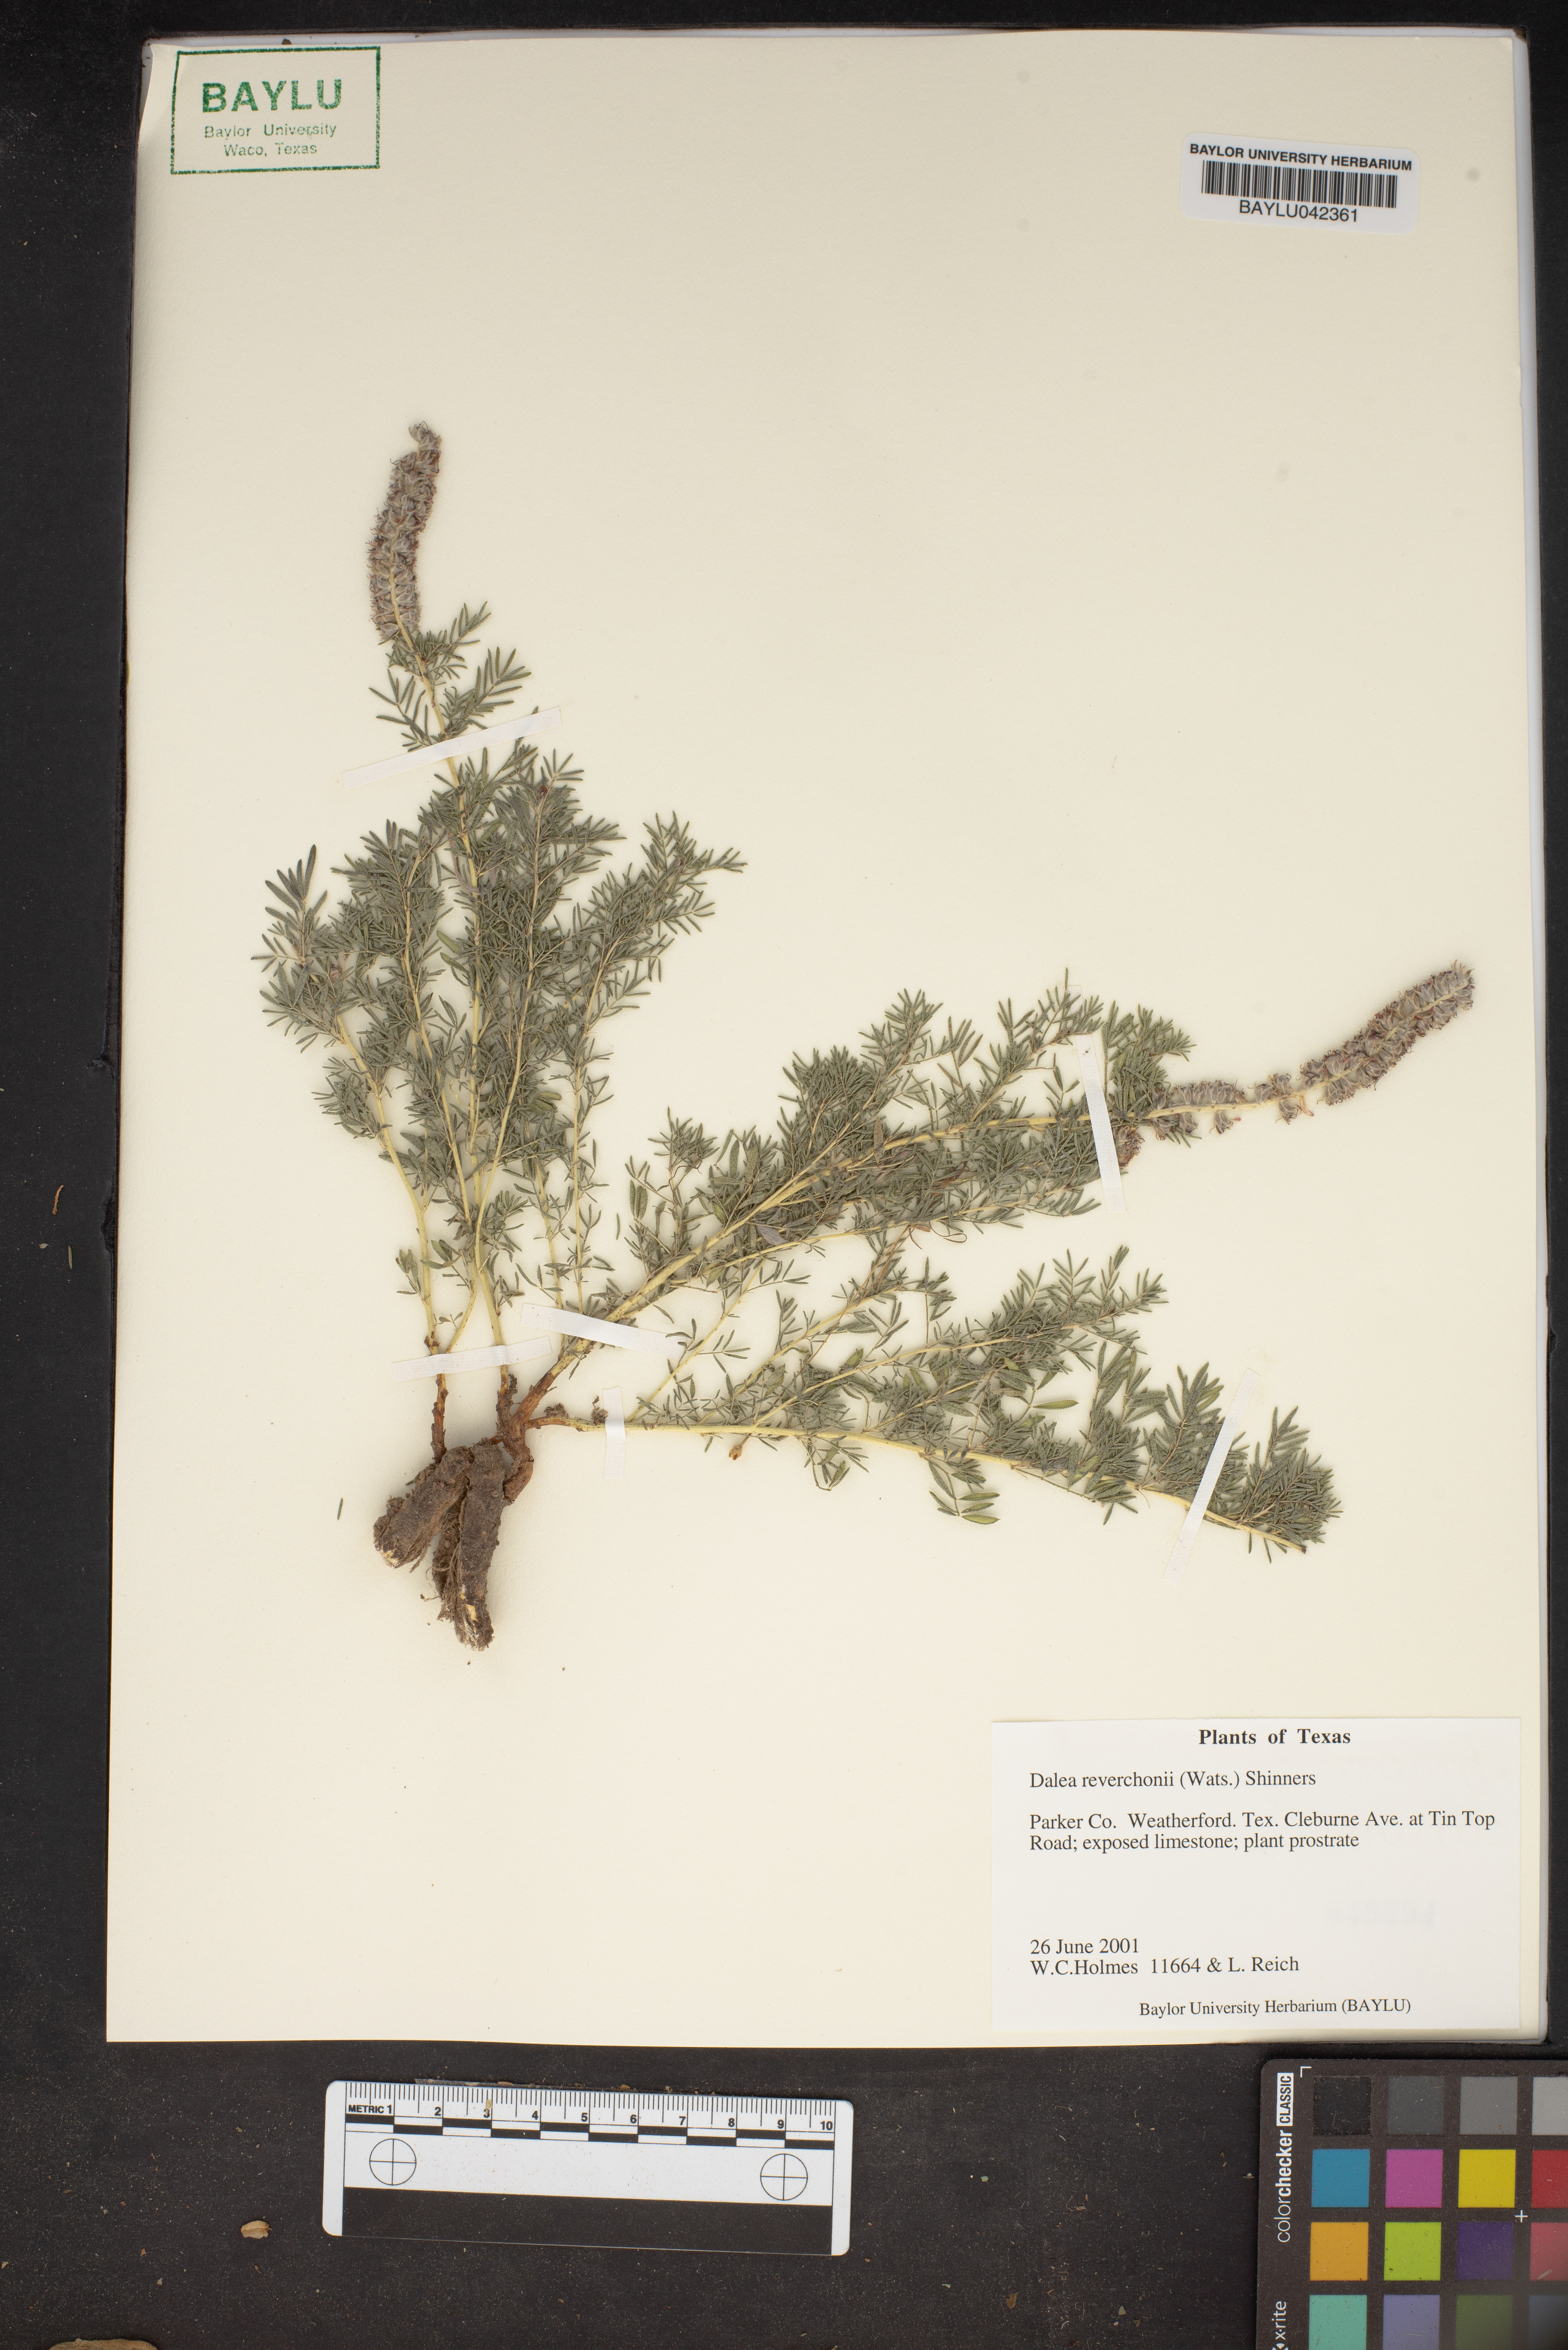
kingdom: Plantae
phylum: Tracheophyta
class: Magnoliopsida
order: Fabales
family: Fabaceae
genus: Dalea
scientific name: Dalea reverchonii
